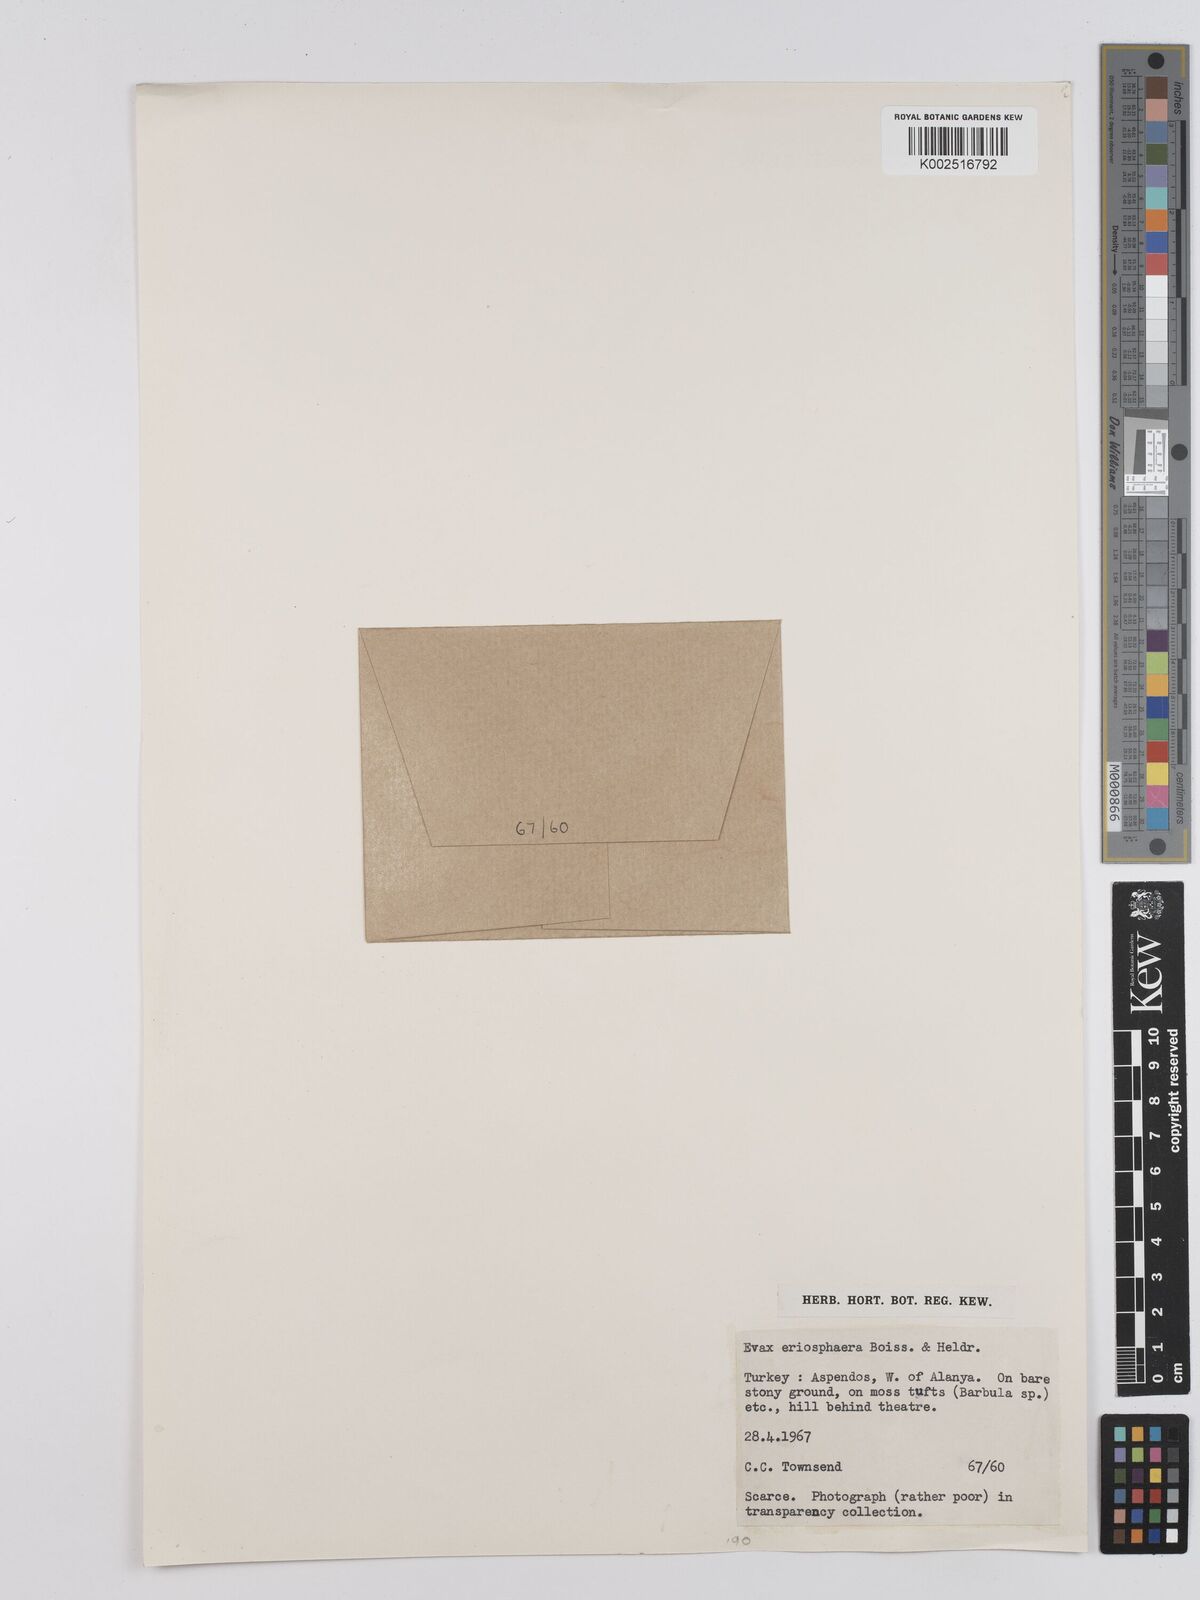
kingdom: Plantae
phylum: Tracheophyta
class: Magnoliopsida
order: Asterales
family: Asteraceae
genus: Filago
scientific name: Filago eriosphaera
